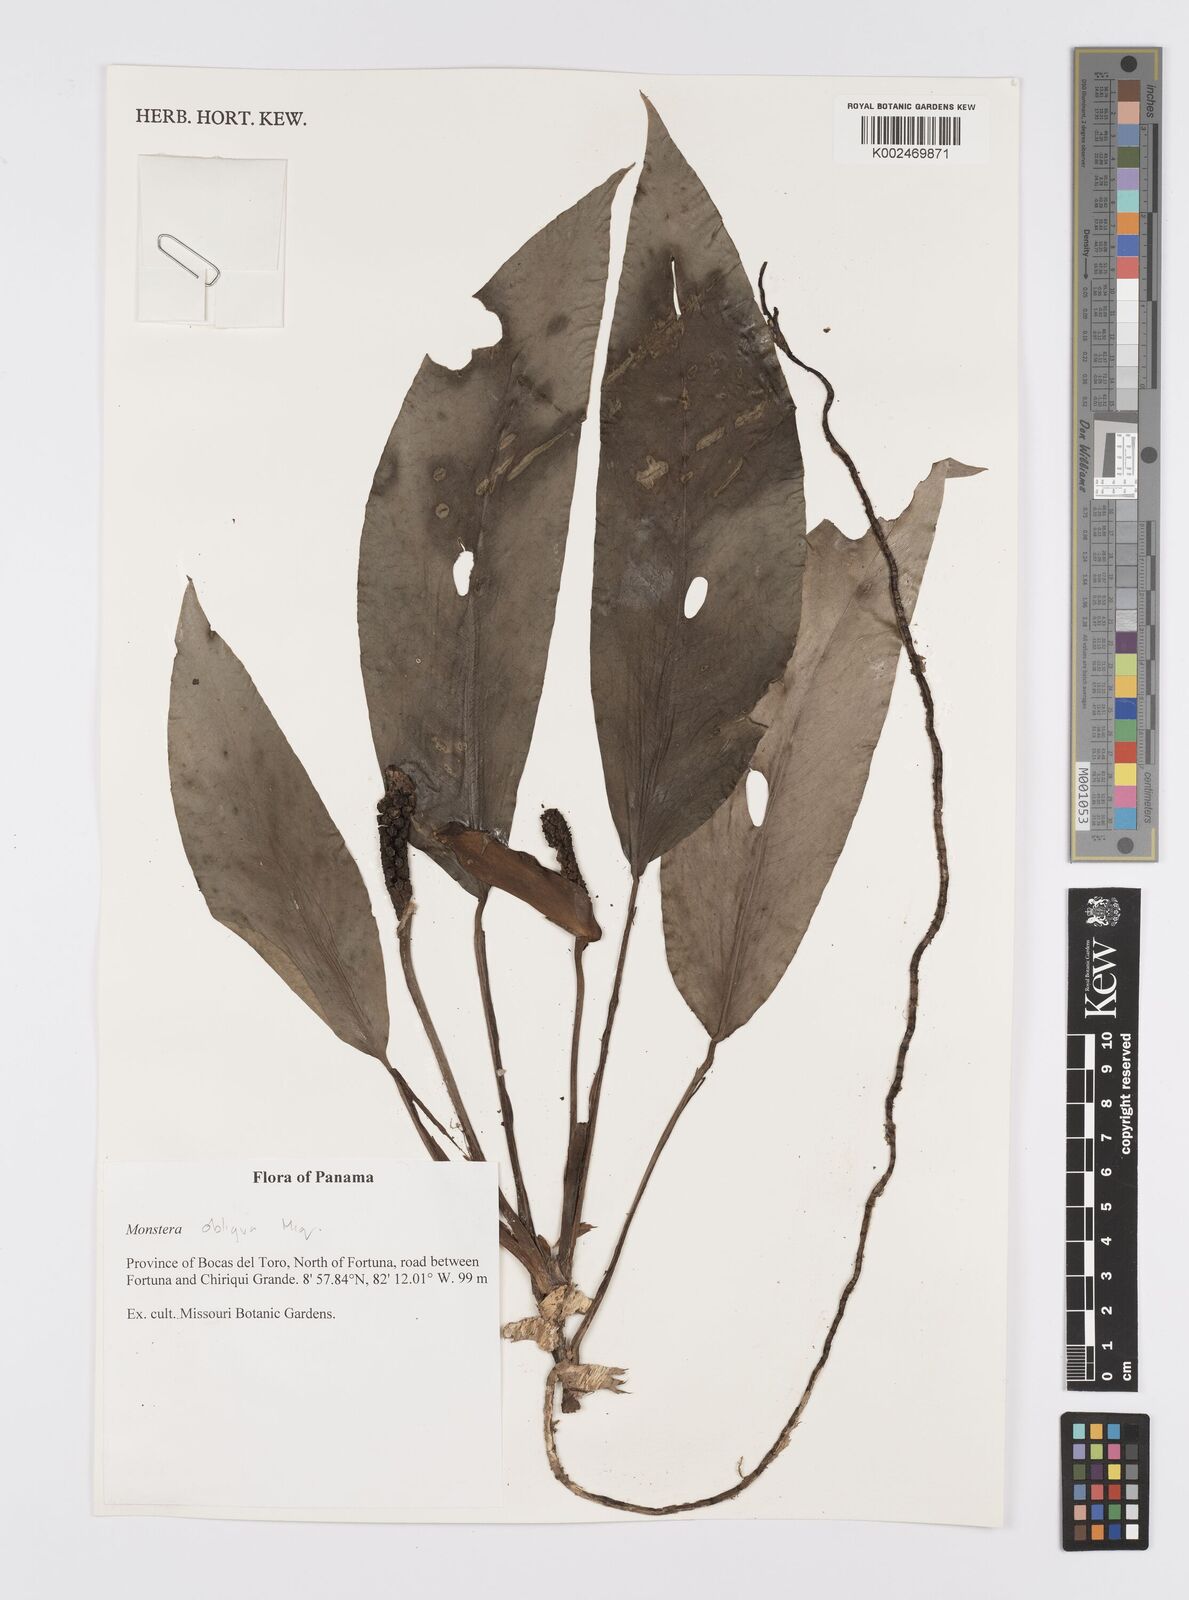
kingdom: Plantae
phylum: Tracheophyta
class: Liliopsida
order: Alismatales
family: Araceae
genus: Monstera
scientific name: Monstera obliqua
